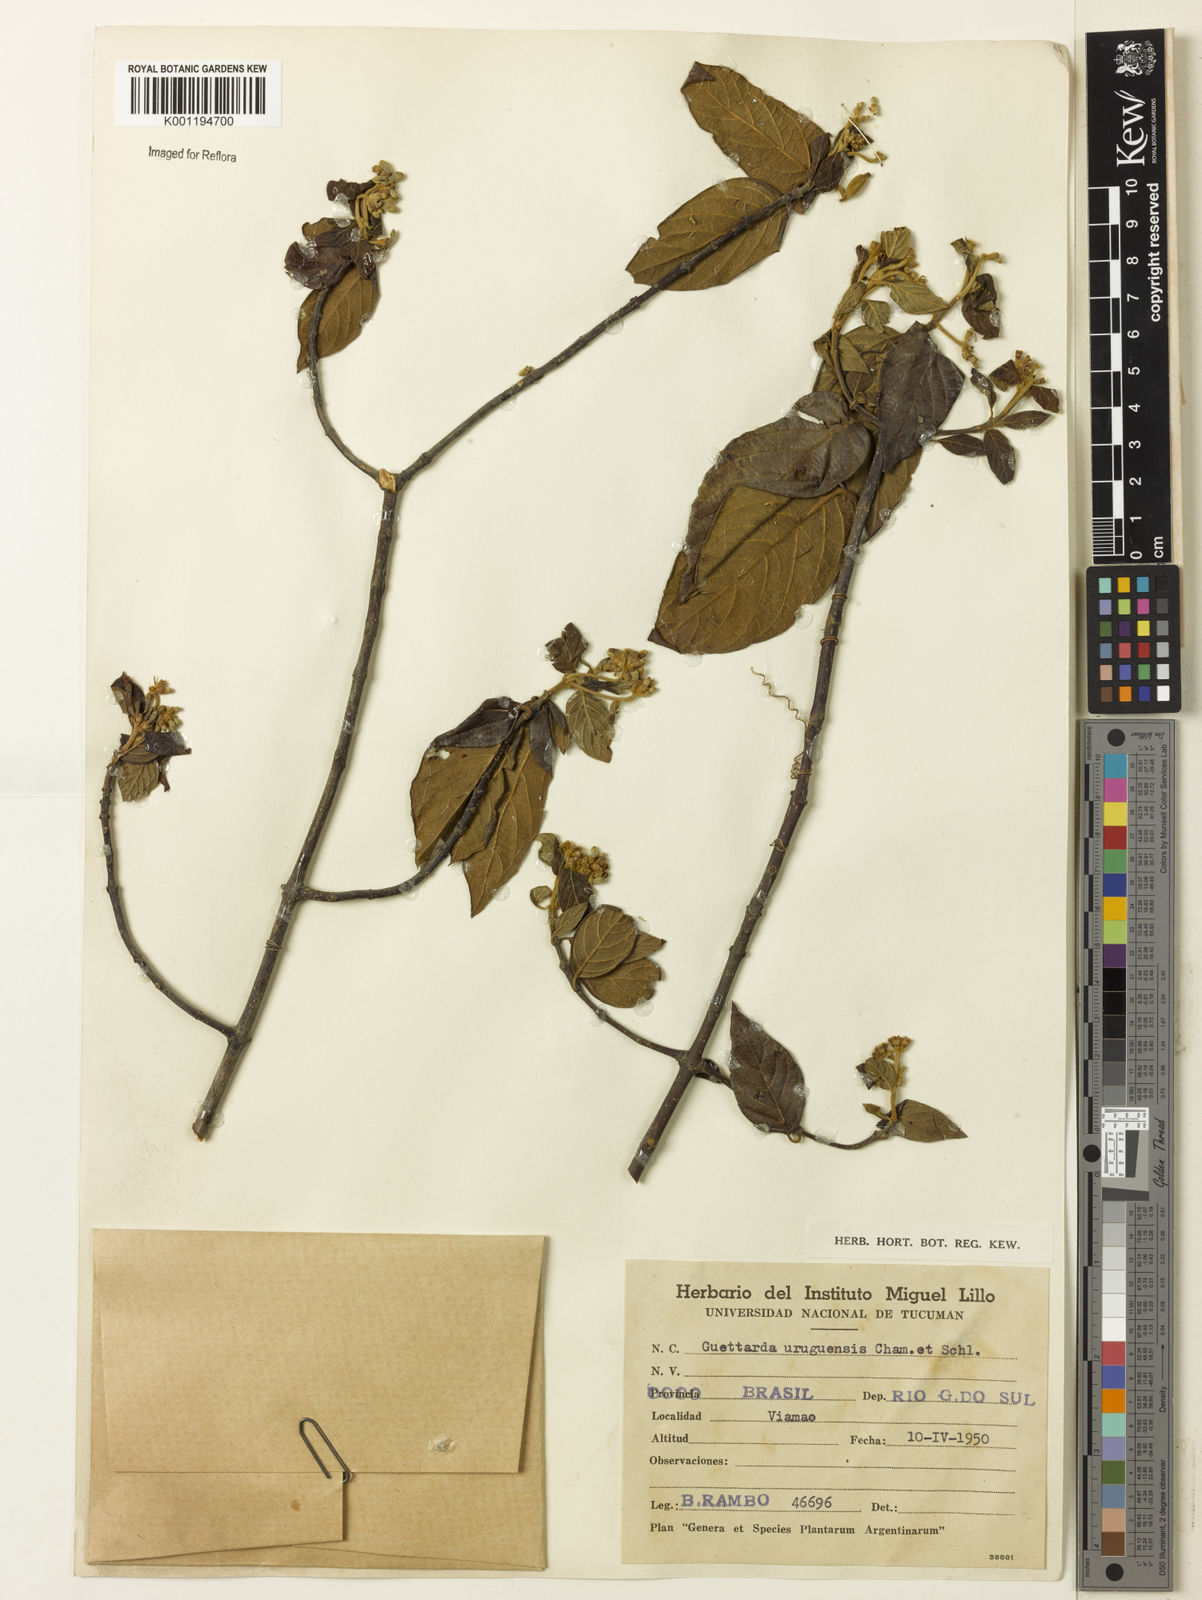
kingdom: Plantae
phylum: Tracheophyta
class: Magnoliopsida
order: Gentianales
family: Rubiaceae
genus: Guettarda
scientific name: Guettarda uruguensis
